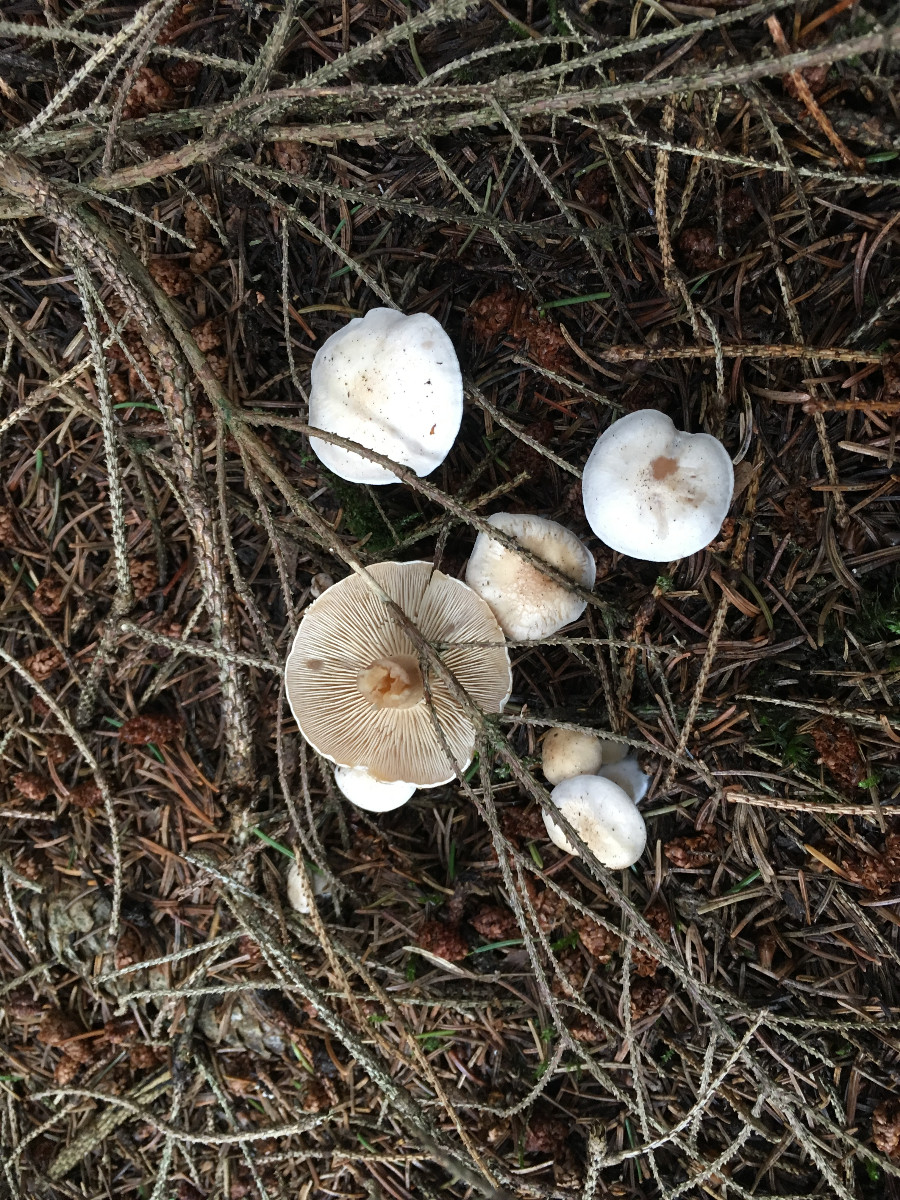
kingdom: Fungi
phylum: Basidiomycota
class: Agaricomycetes
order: Agaricales
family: Tricholomataceae
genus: Clitocybe
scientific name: Clitocybe
